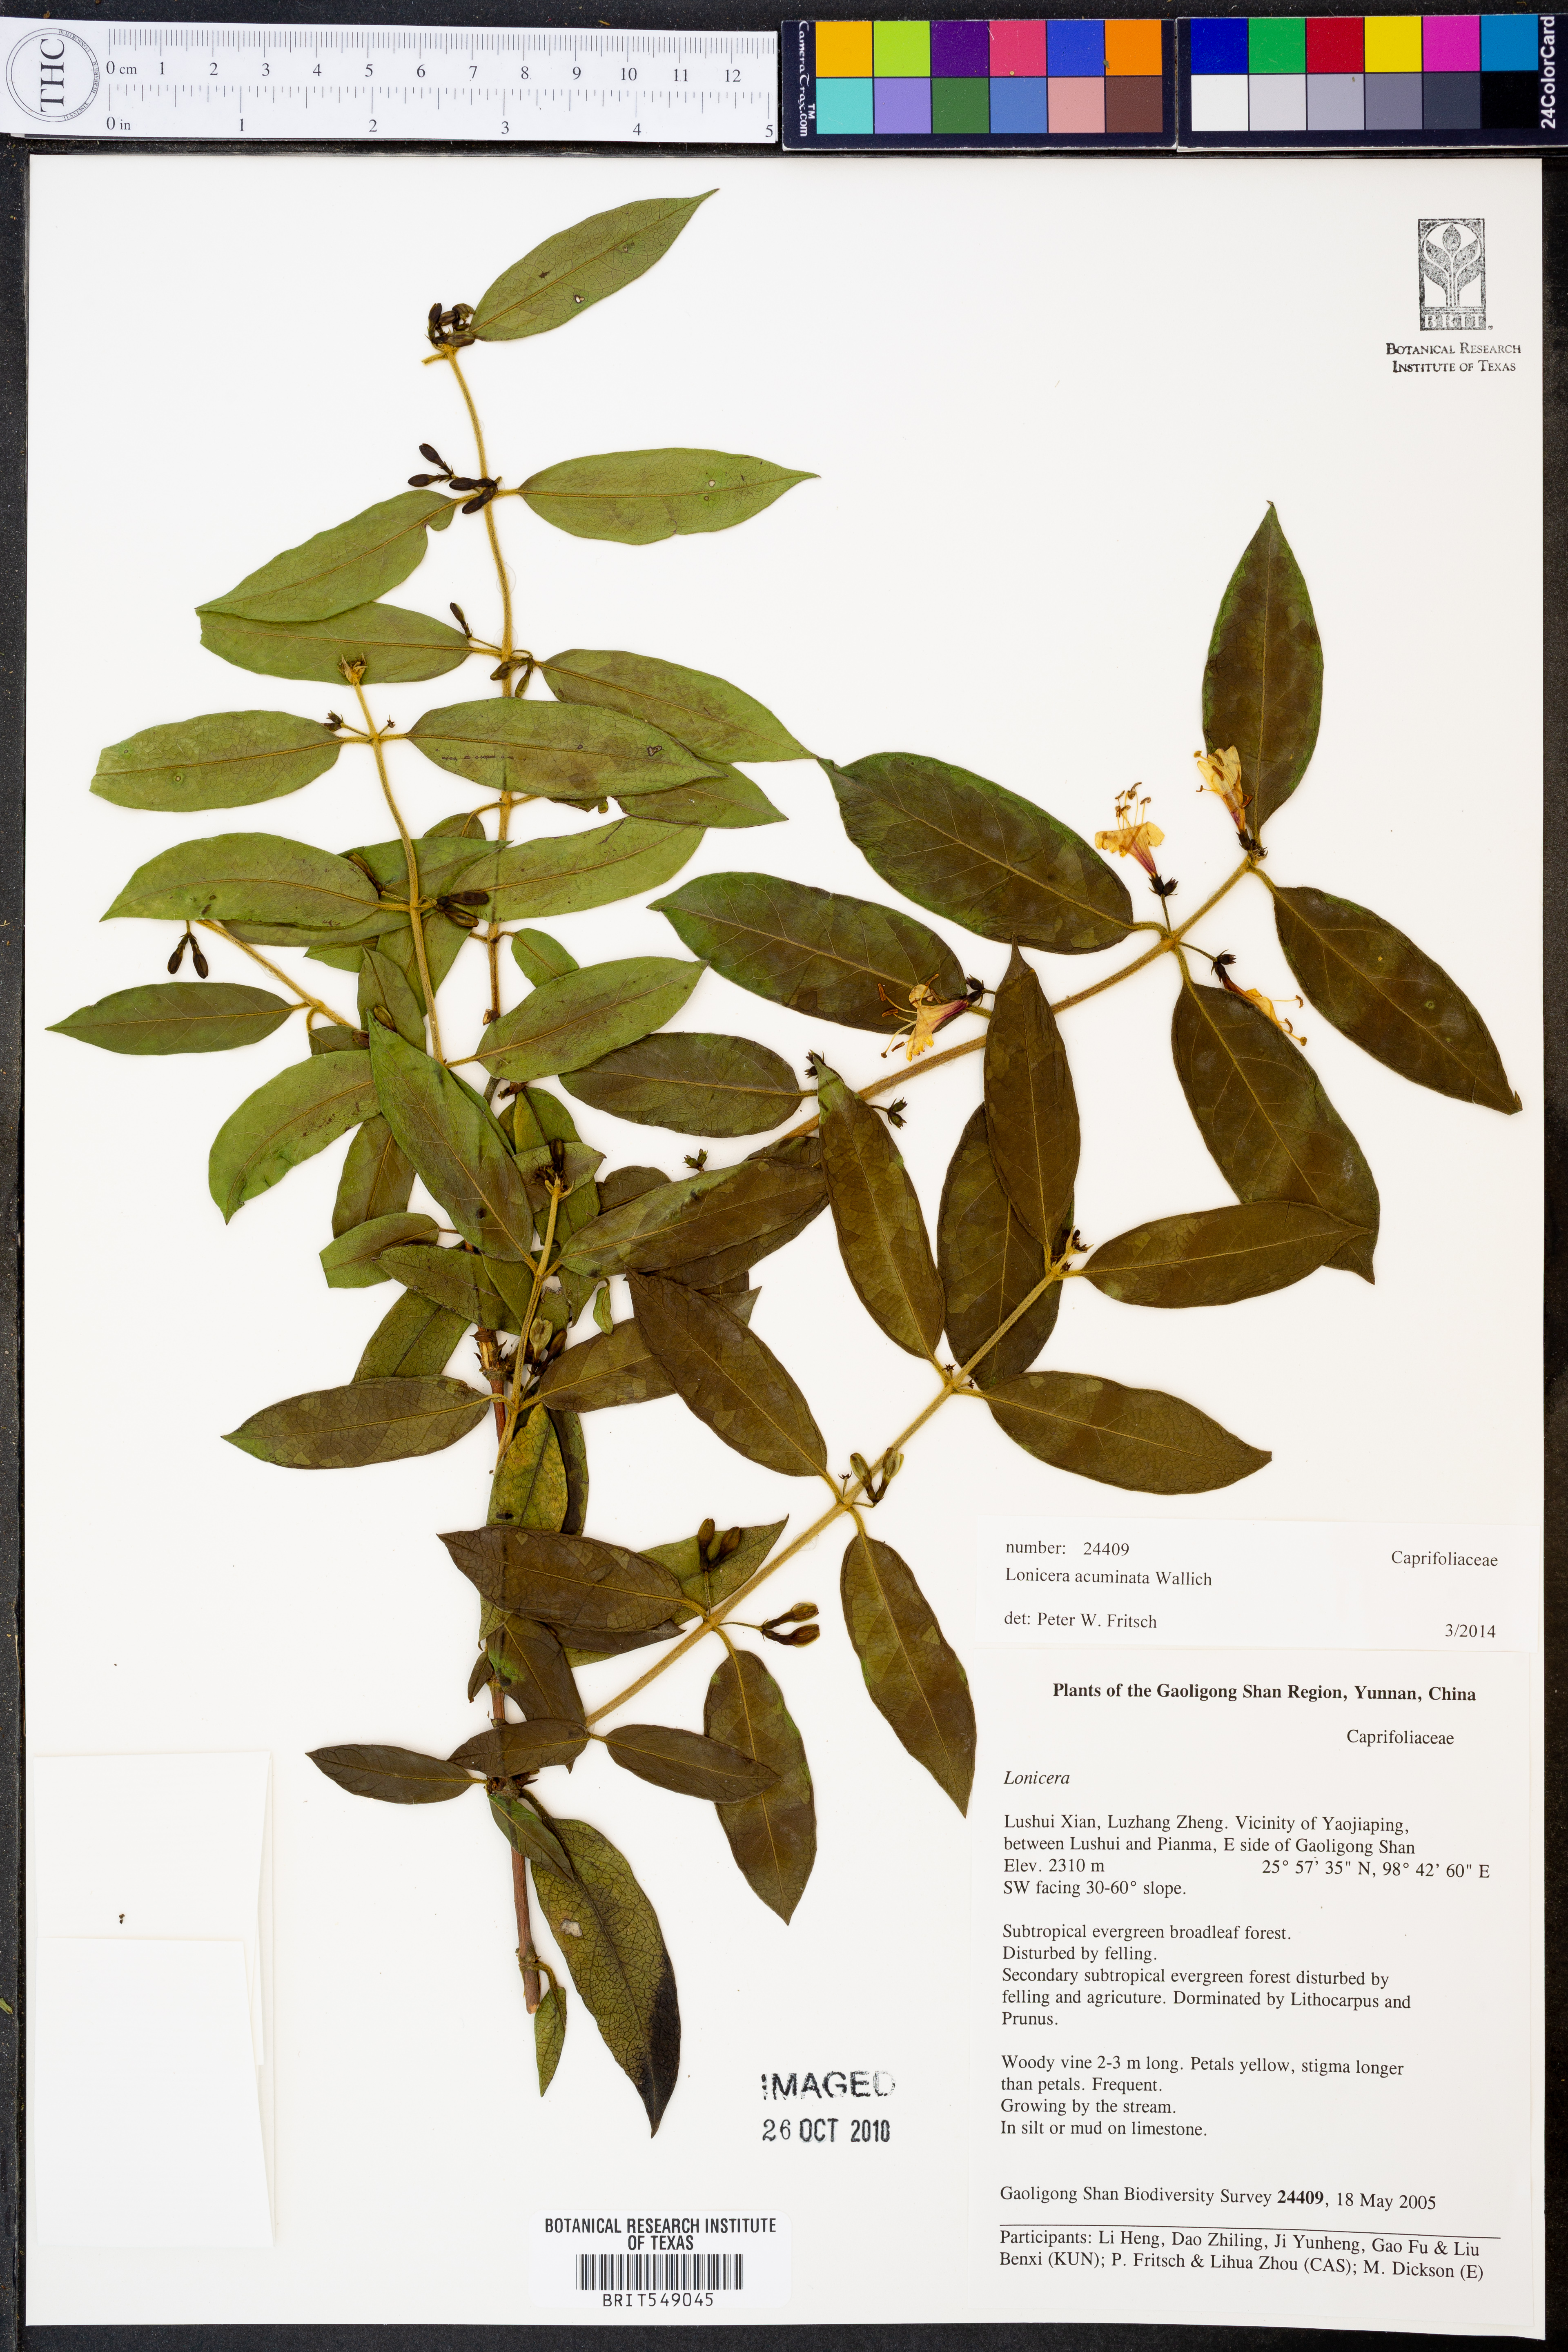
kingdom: Plantae
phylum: Tracheophyta
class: Magnoliopsida
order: Dipsacales
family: Caprifoliaceae
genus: Lonicera
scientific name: Lonicera acuminata
